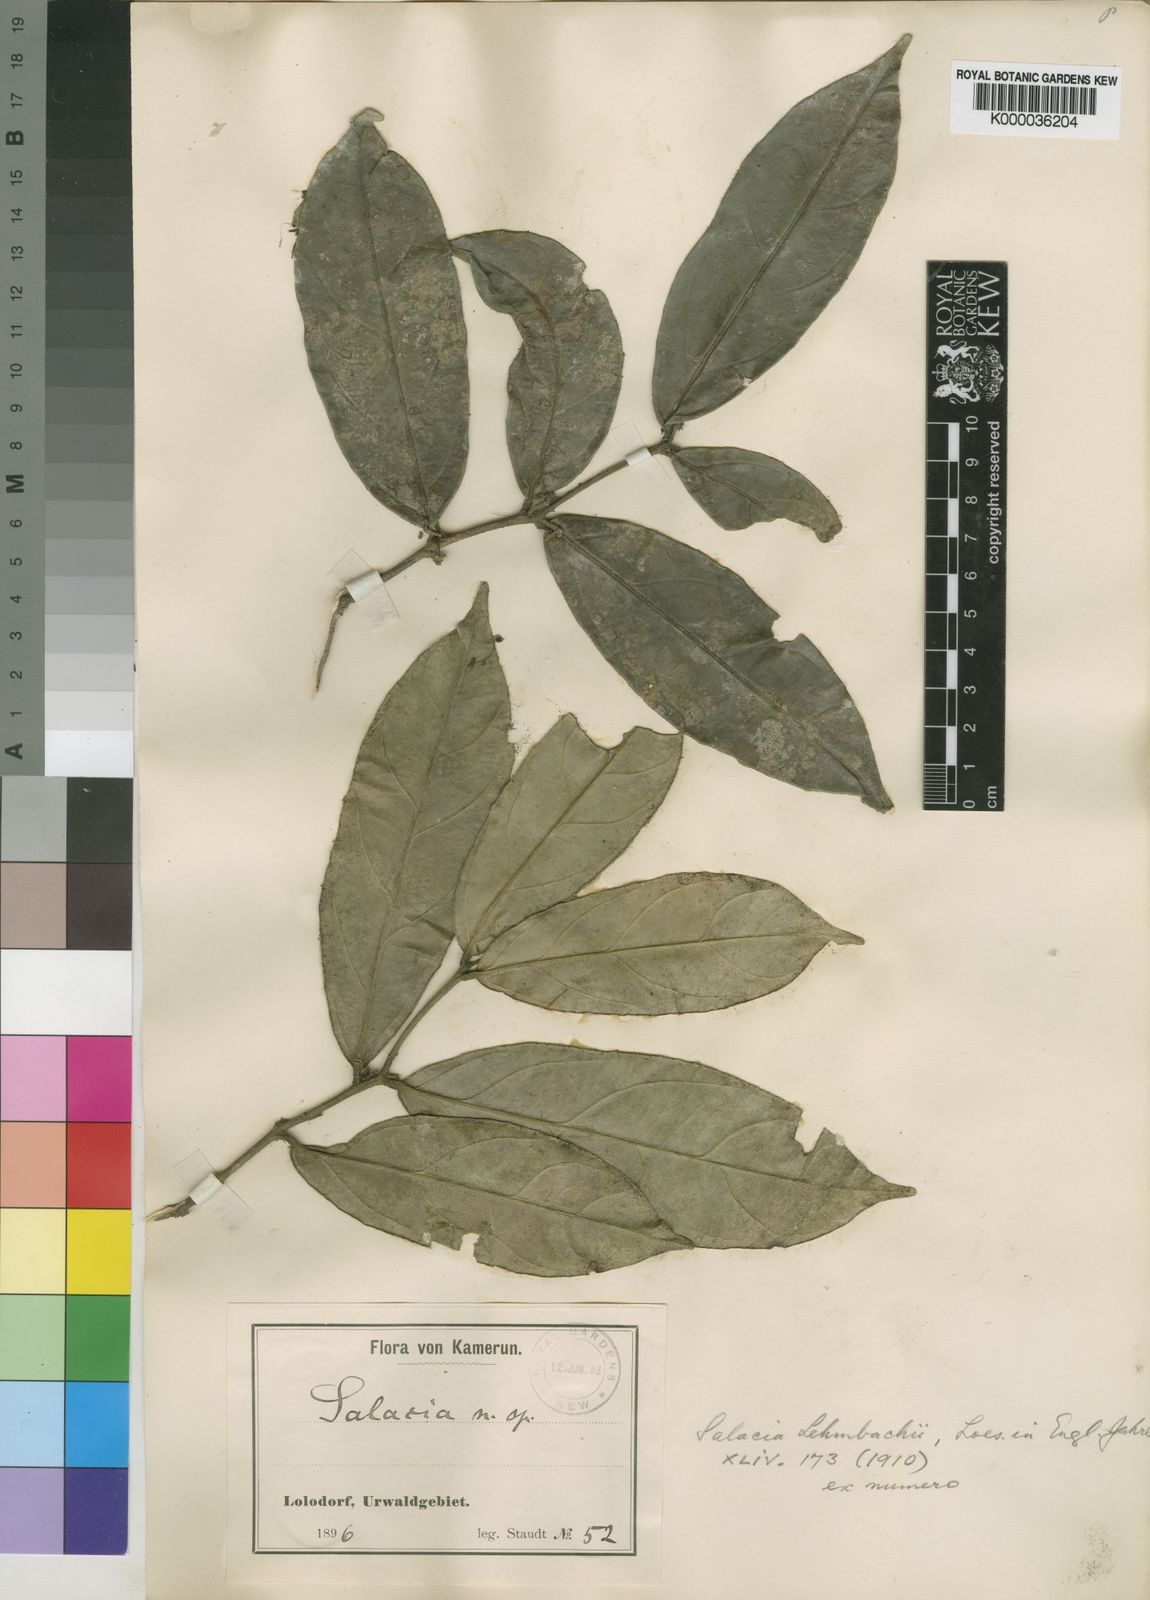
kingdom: Plantae
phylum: Tracheophyta
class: Magnoliopsida
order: Celastrales
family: Celastraceae
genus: Salacia
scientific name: Salacia lehmbachii
